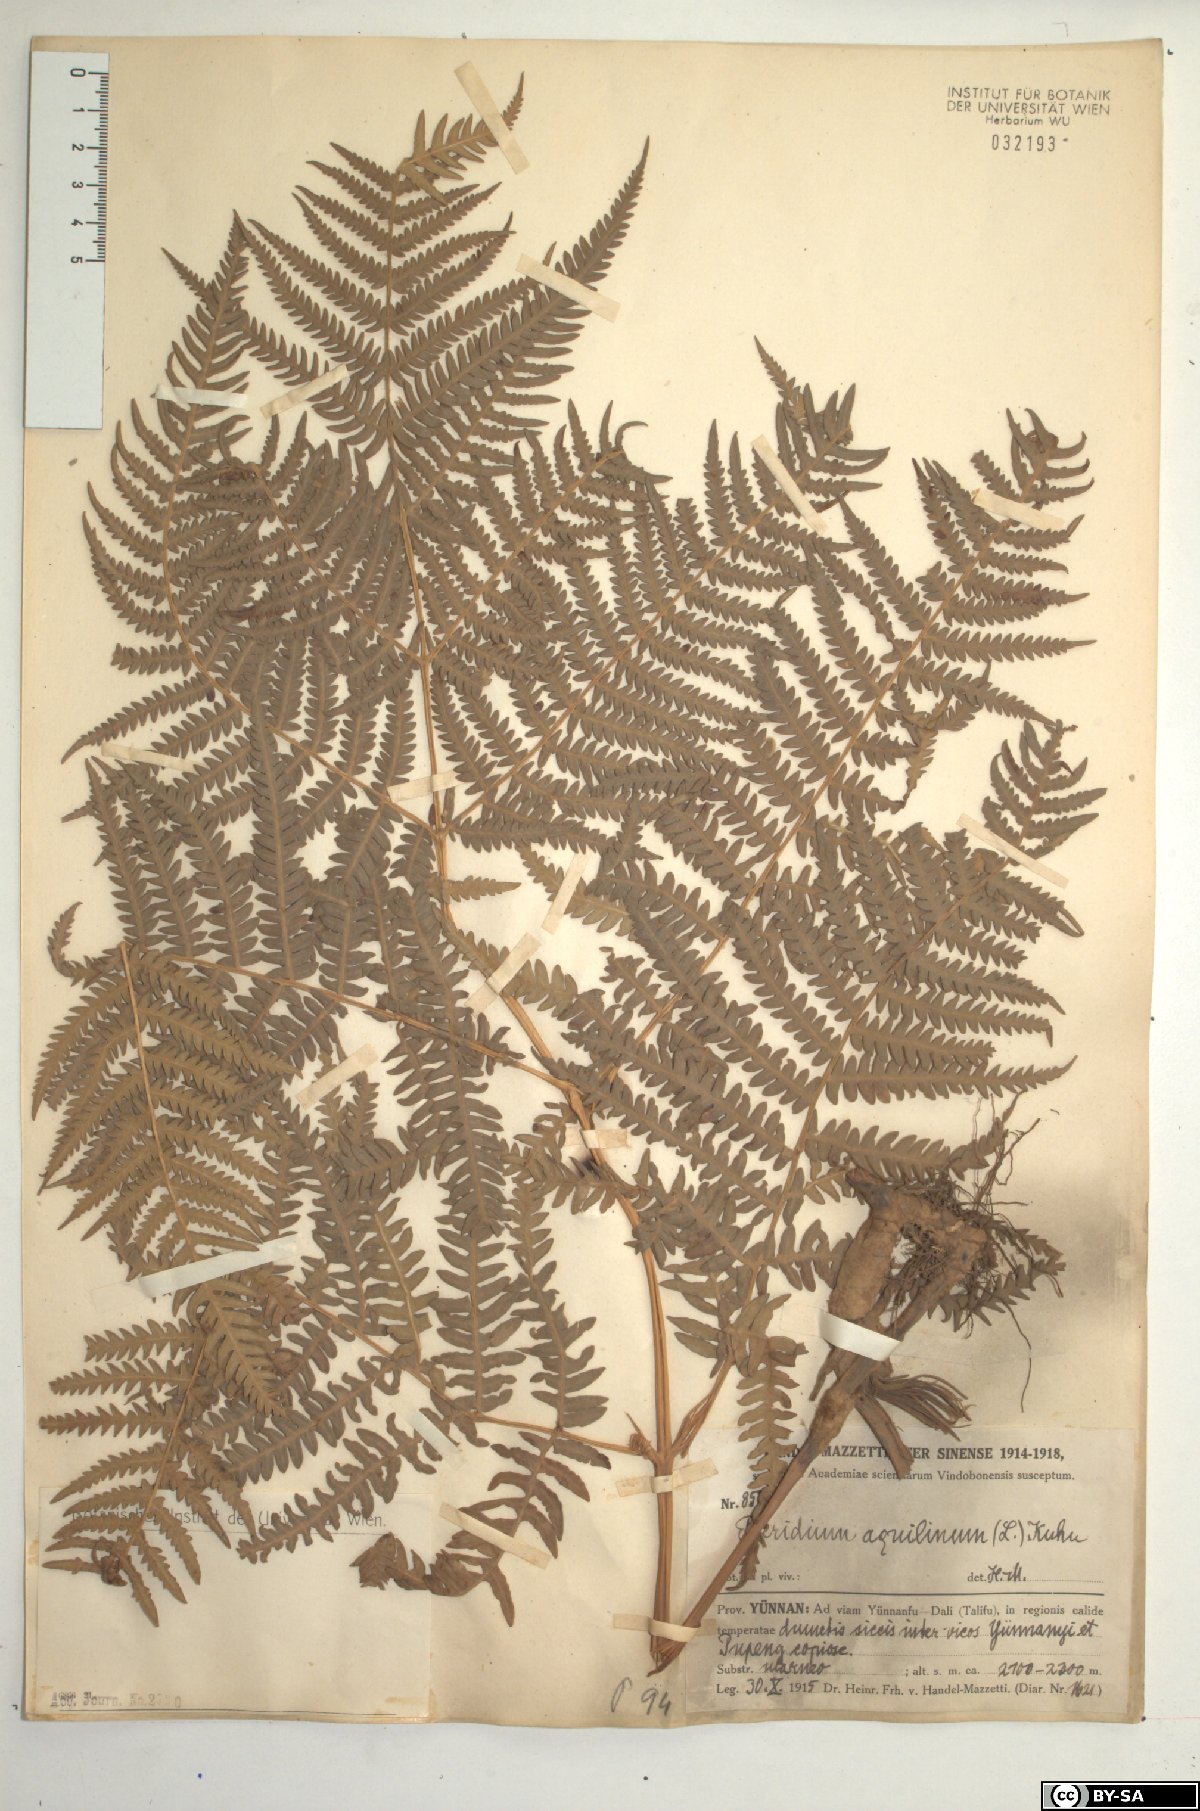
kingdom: Plantae
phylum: Tracheophyta
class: Polypodiopsida
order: Polypodiales
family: Dennstaedtiaceae
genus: Pteridium
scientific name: Pteridium aquilinum
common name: Bracken
